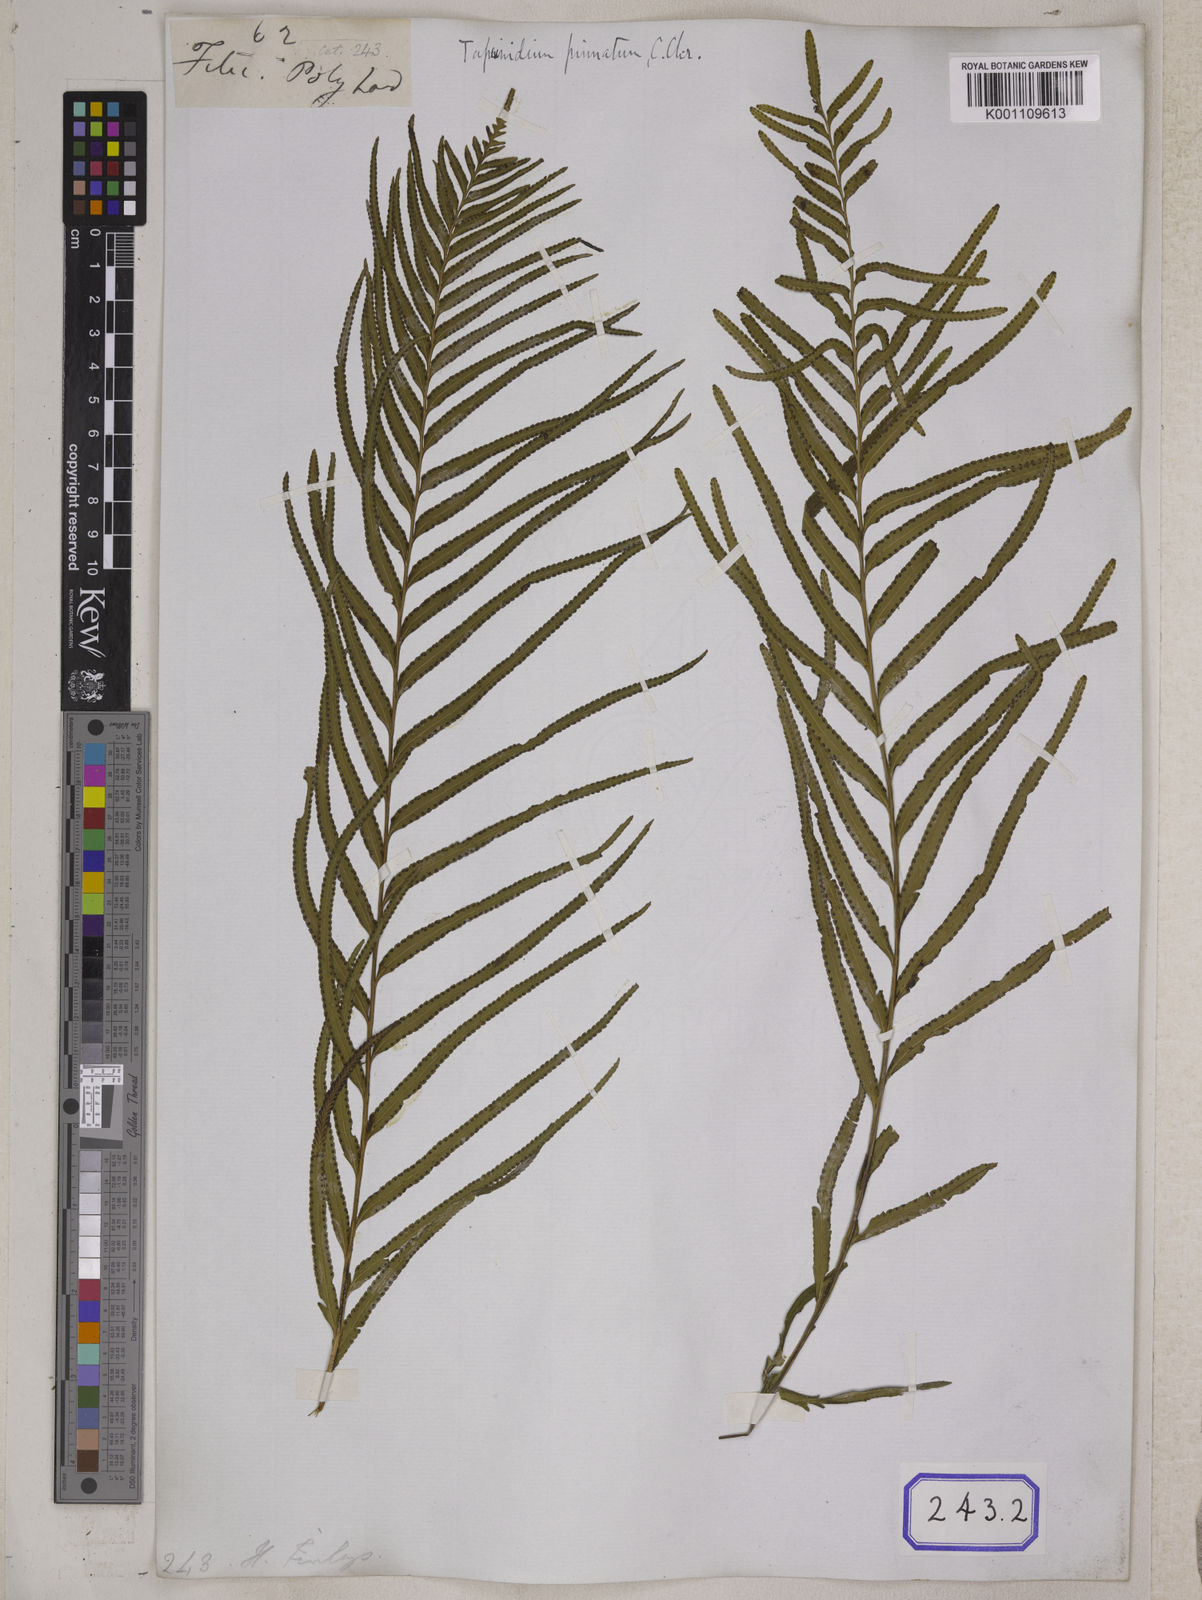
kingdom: Plantae
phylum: Tracheophyta
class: Polypodiopsida
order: Polypodiales
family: Lindsaeaceae
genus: Tapeinidium
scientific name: Tapeinidium pinnatum
